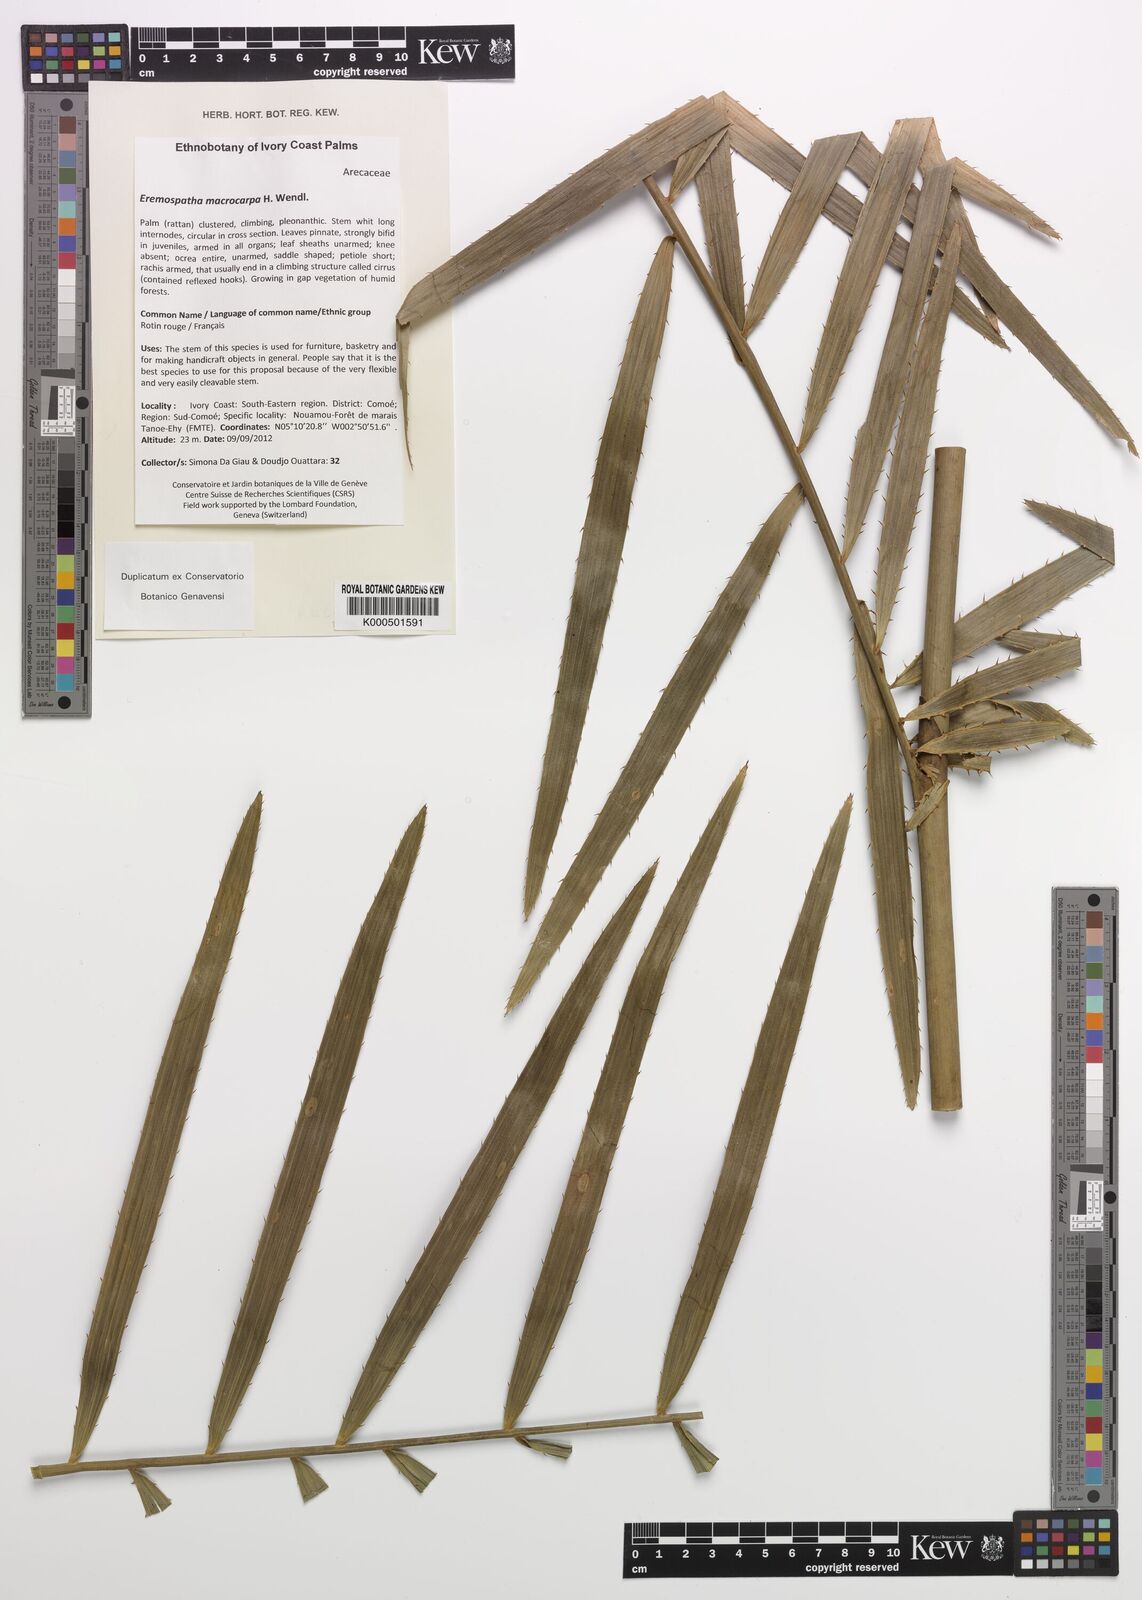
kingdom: Plantae
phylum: Tracheophyta
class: Liliopsida
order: Arecales
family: Arecaceae
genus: Eremospatha
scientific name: Eremospatha macrocarpa
